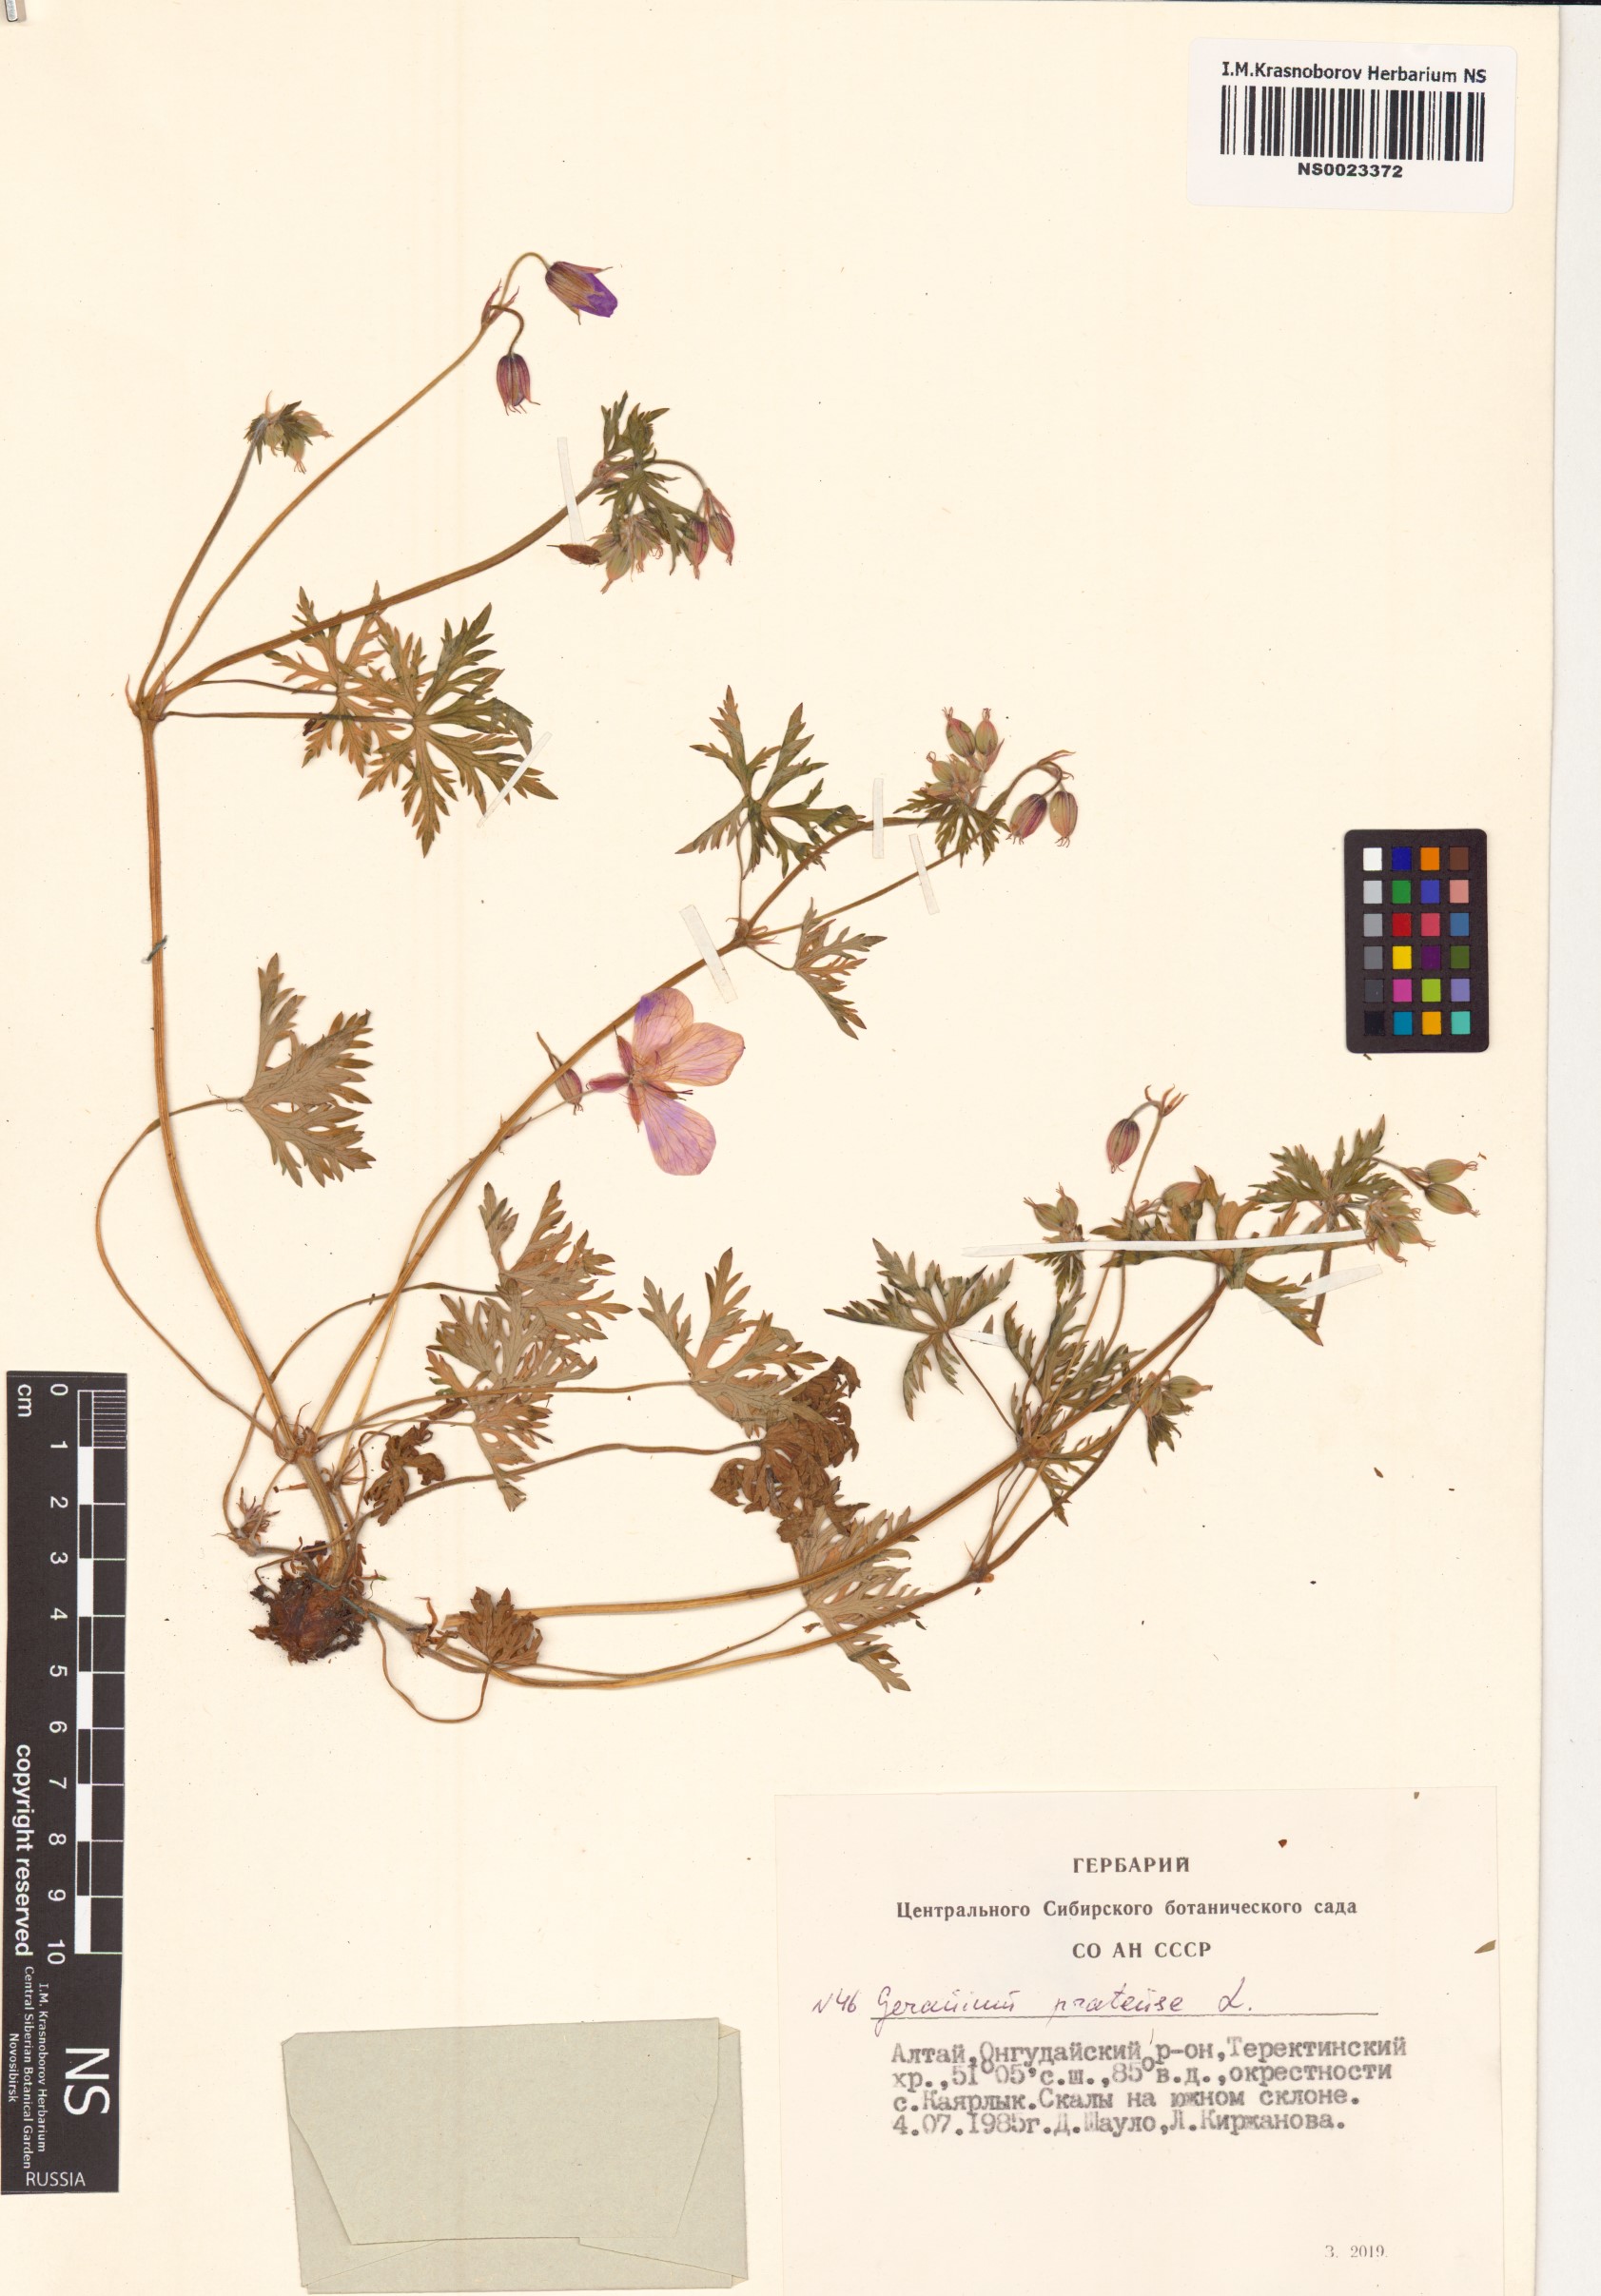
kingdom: Plantae
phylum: Tracheophyta
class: Magnoliopsida
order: Geraniales
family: Geraniaceae
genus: Geranium
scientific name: Geranium pratense
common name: Meadow crane's-bill
